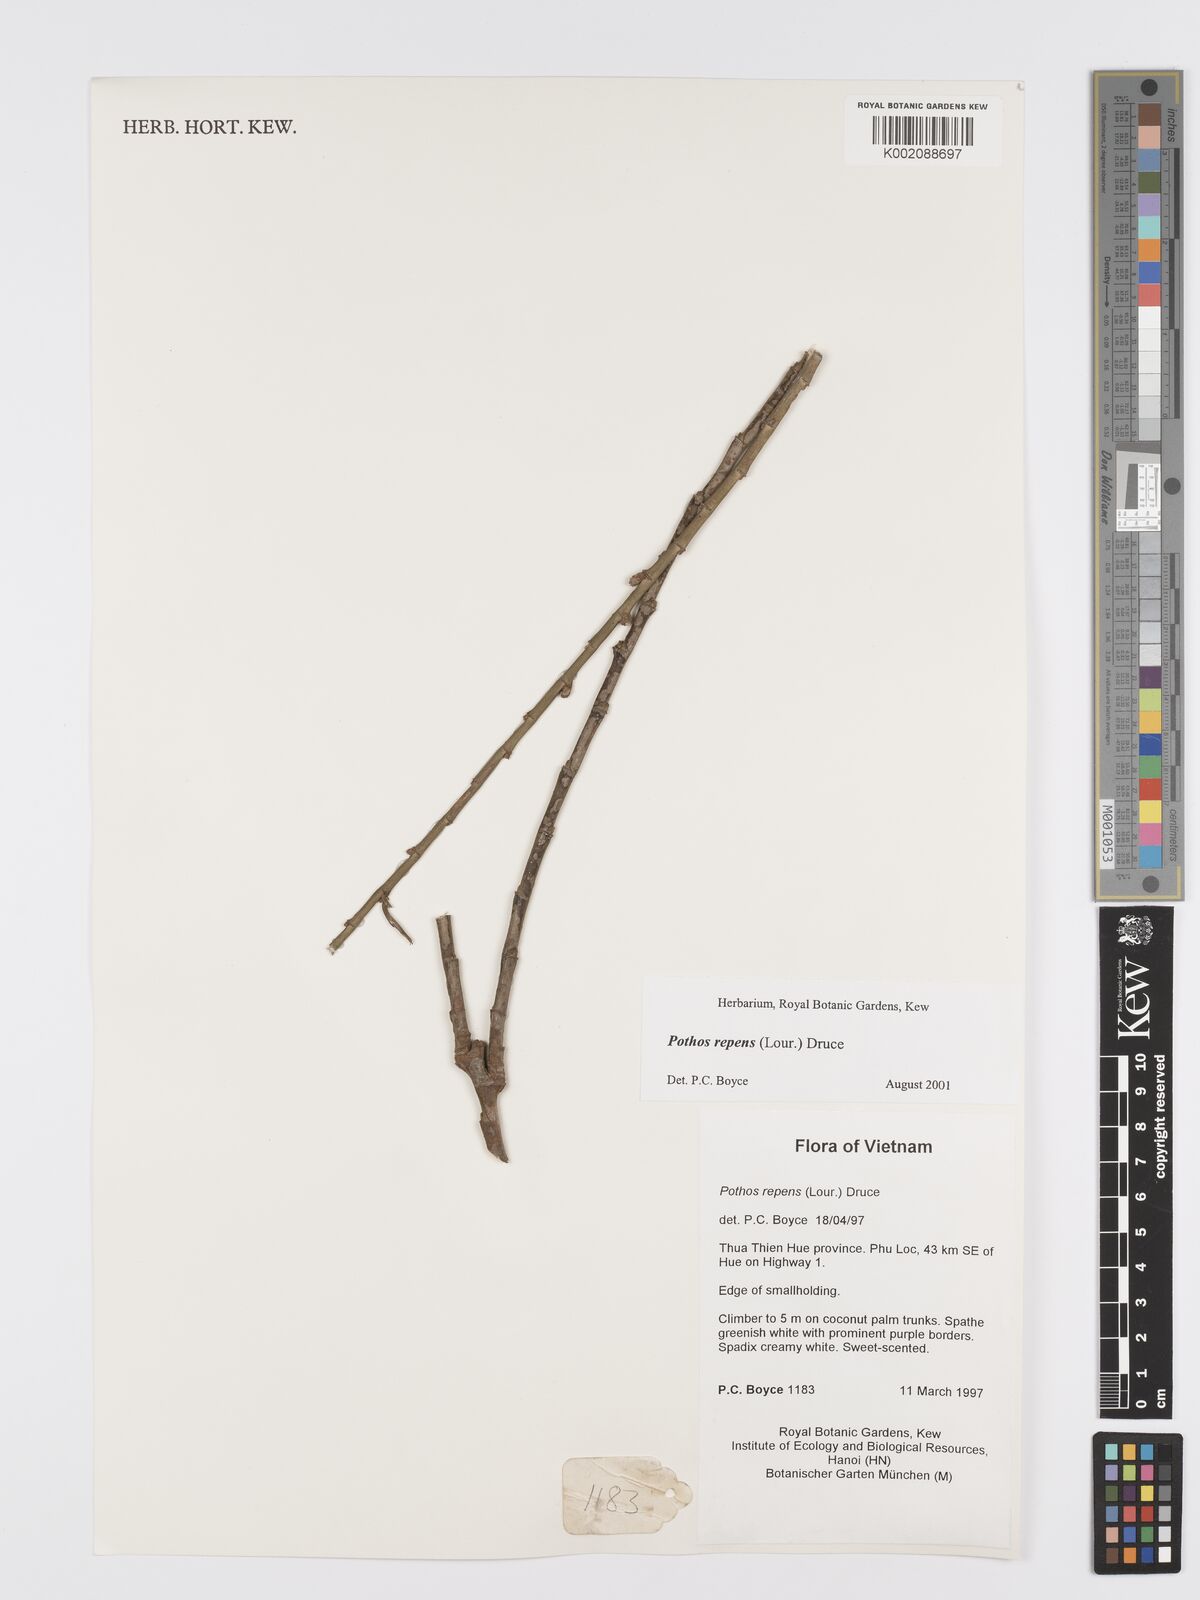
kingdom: Plantae
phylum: Tracheophyta
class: Liliopsida
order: Alismatales
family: Araceae
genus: Pothos
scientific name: Pothos repens
